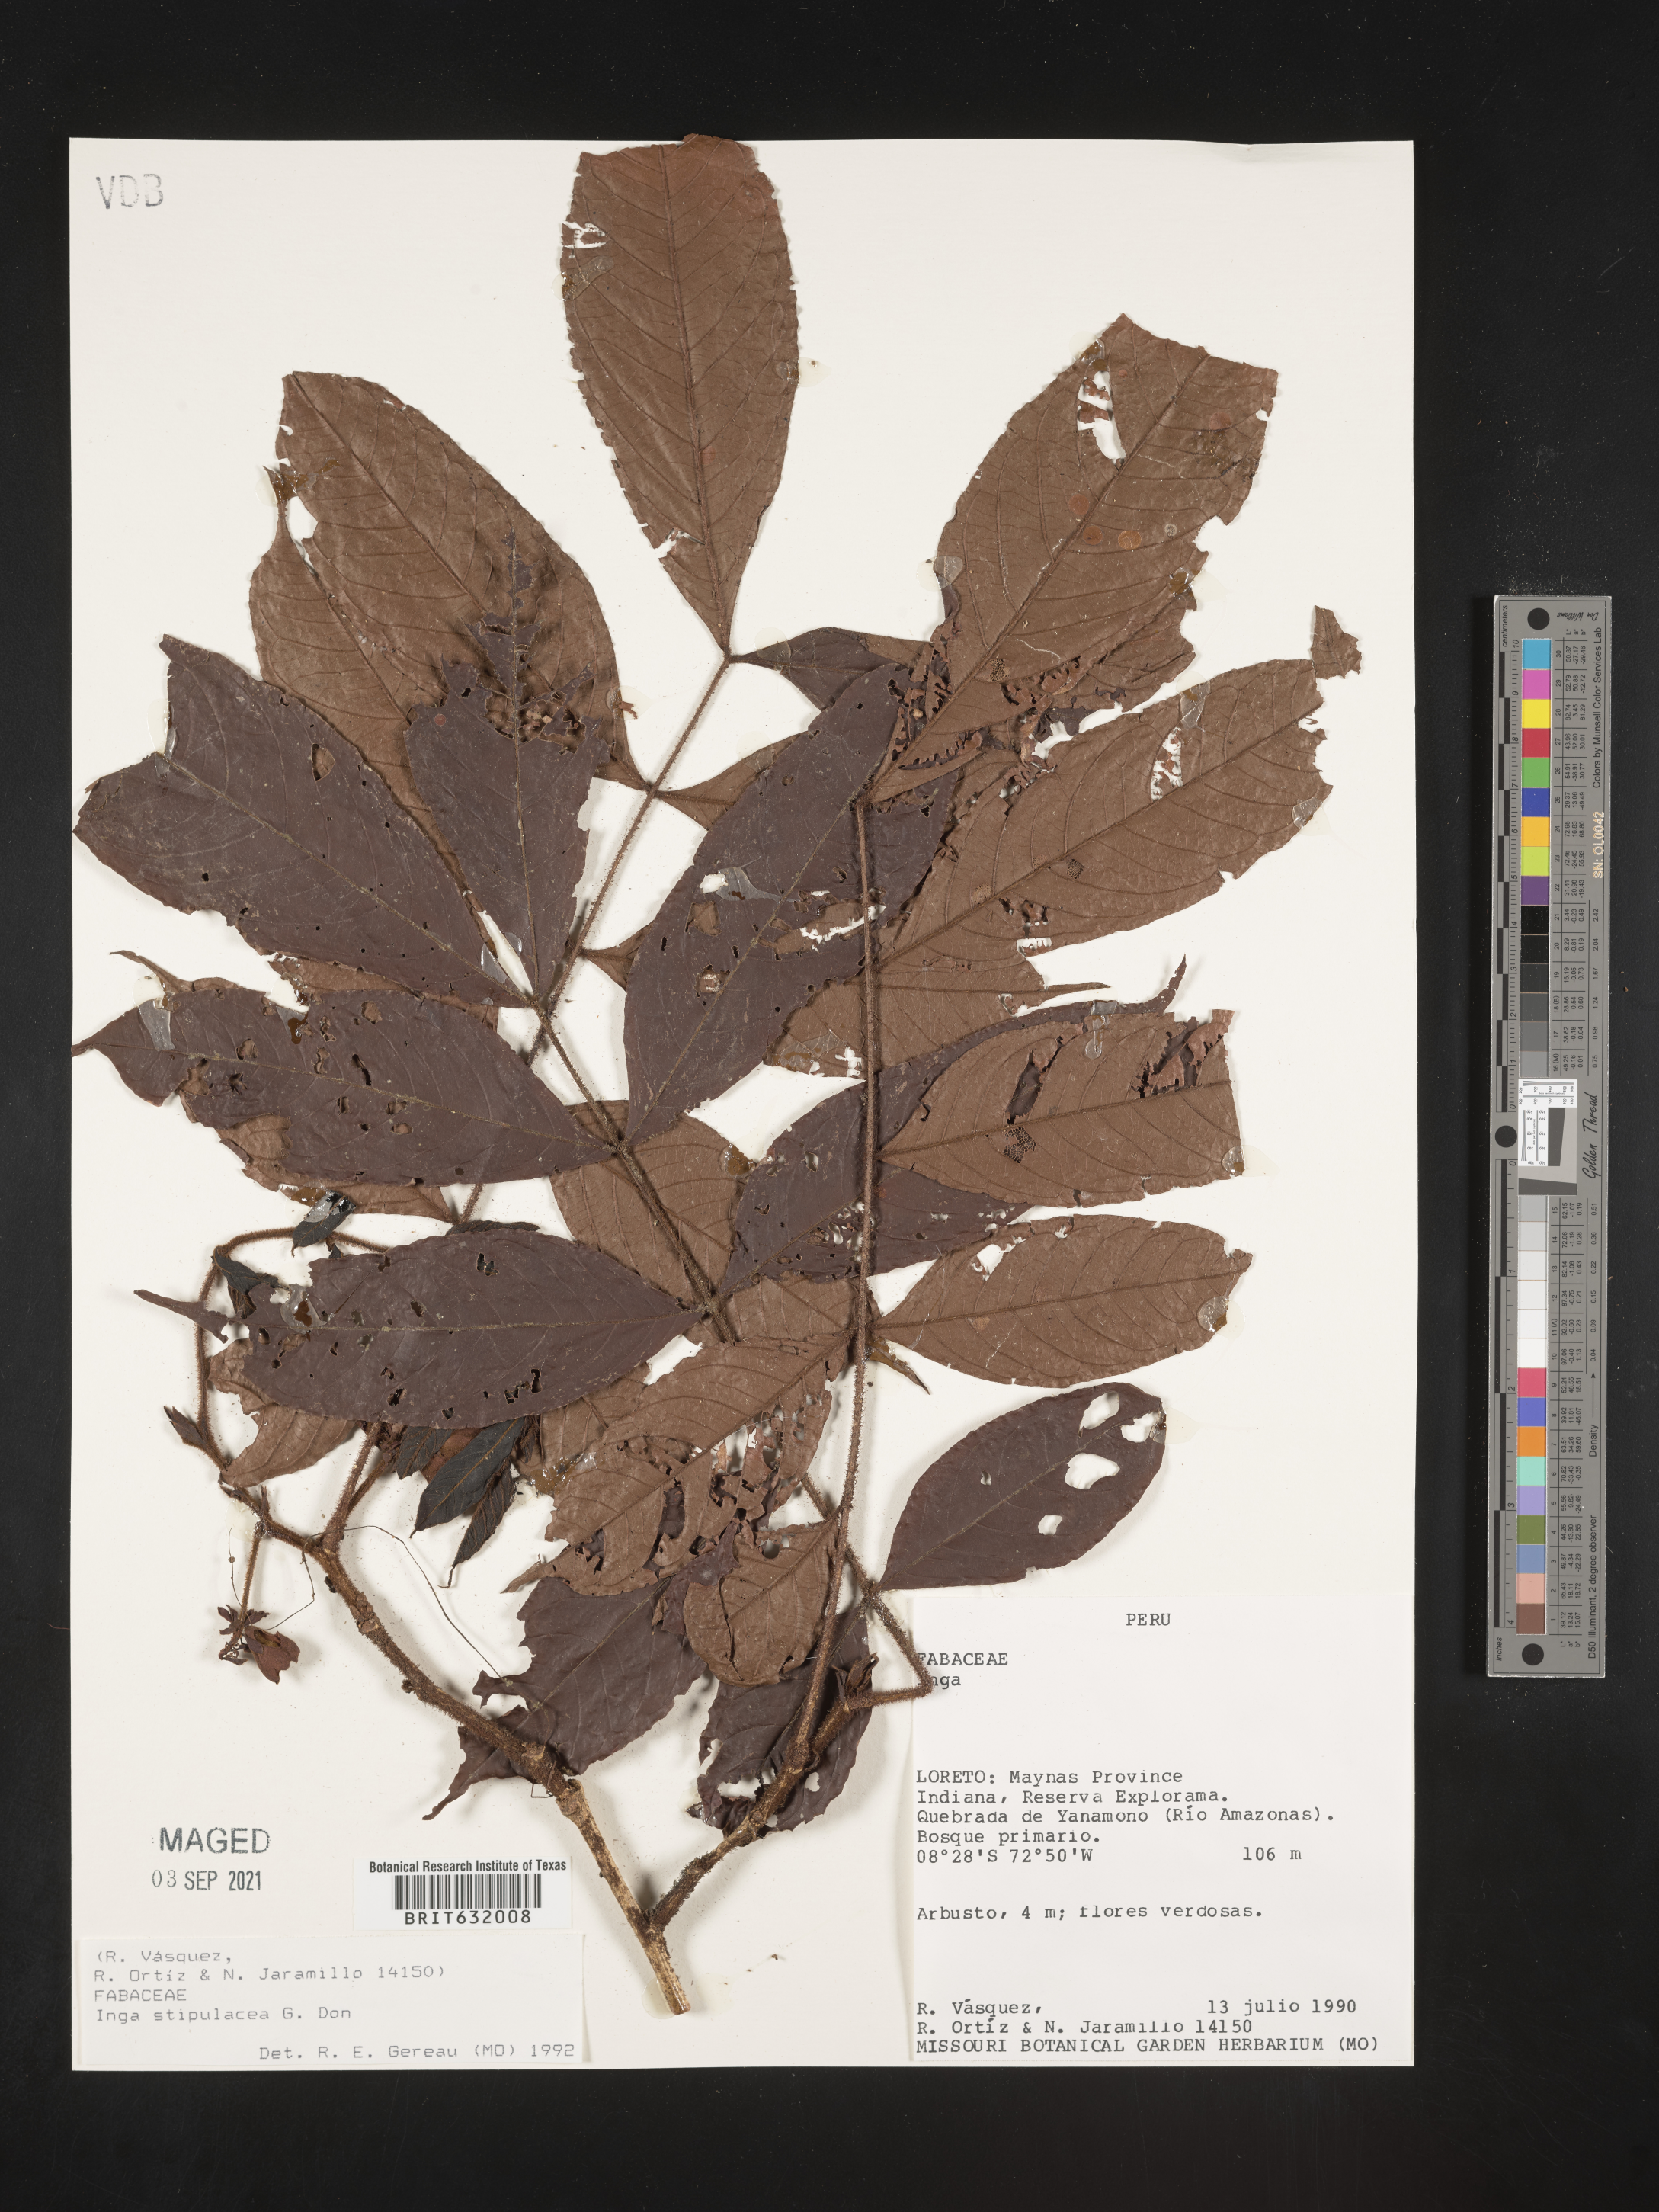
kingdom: Plantae
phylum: Tracheophyta
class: Magnoliopsida
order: Fabales
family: Fabaceae
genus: Inga
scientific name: Inga
